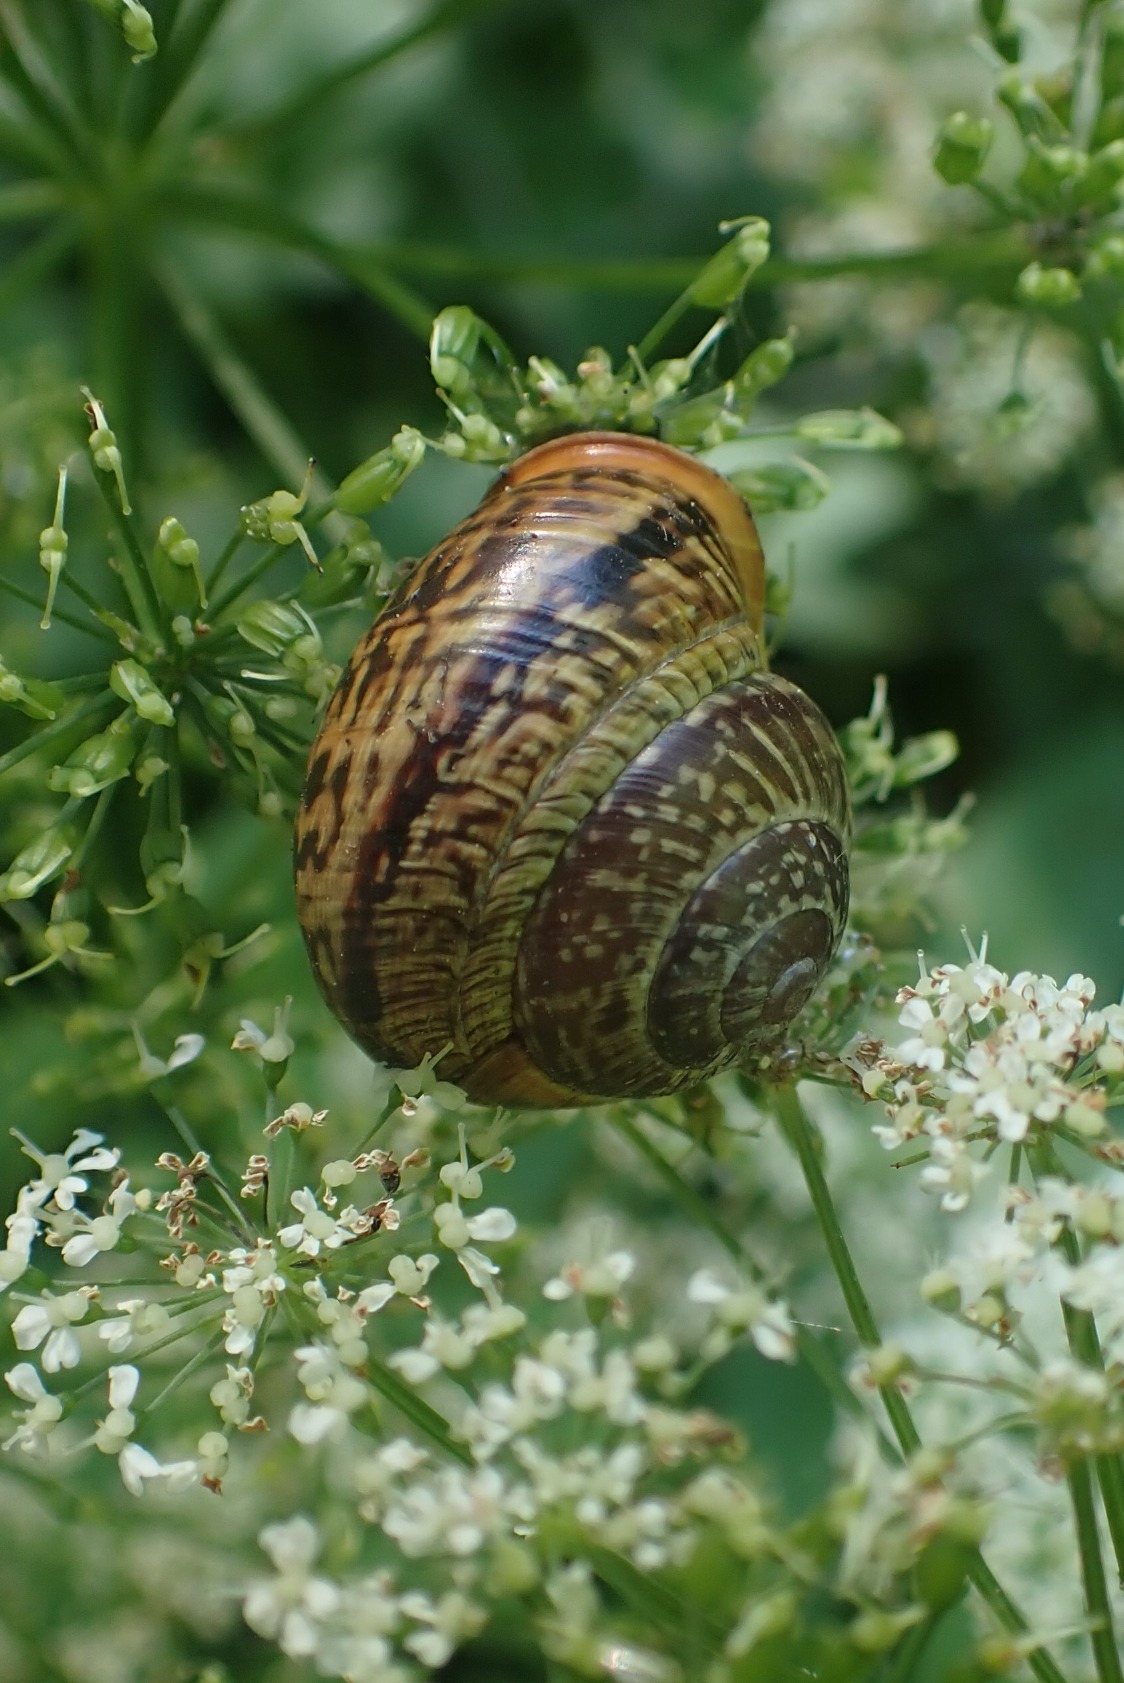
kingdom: Animalia
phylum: Mollusca
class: Gastropoda
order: Stylommatophora
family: Helicidae
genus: Arianta
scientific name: Arianta arbustorum
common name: Kratsnegl
